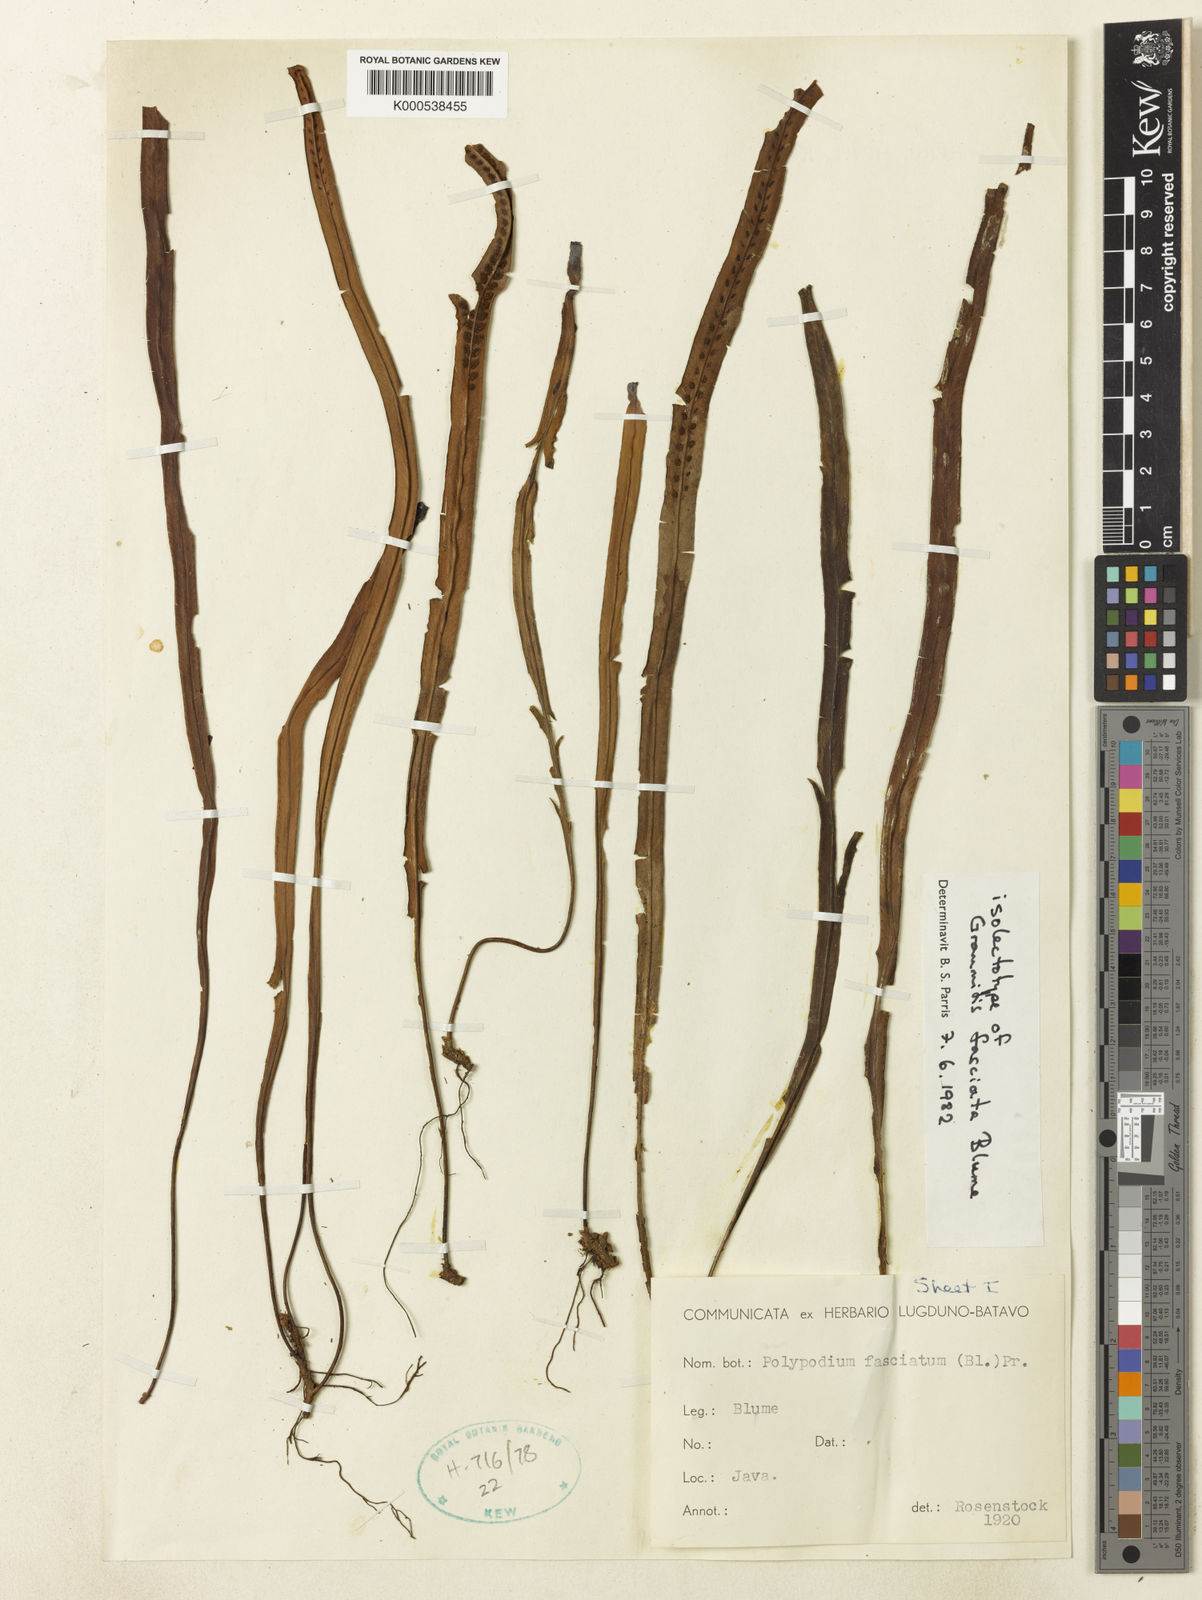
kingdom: Plantae
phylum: Tracheophyta
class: Polypodiopsida
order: Polypodiales
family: Polypodiaceae
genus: Oreogrammitis
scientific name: Oreogrammitis fasciata
